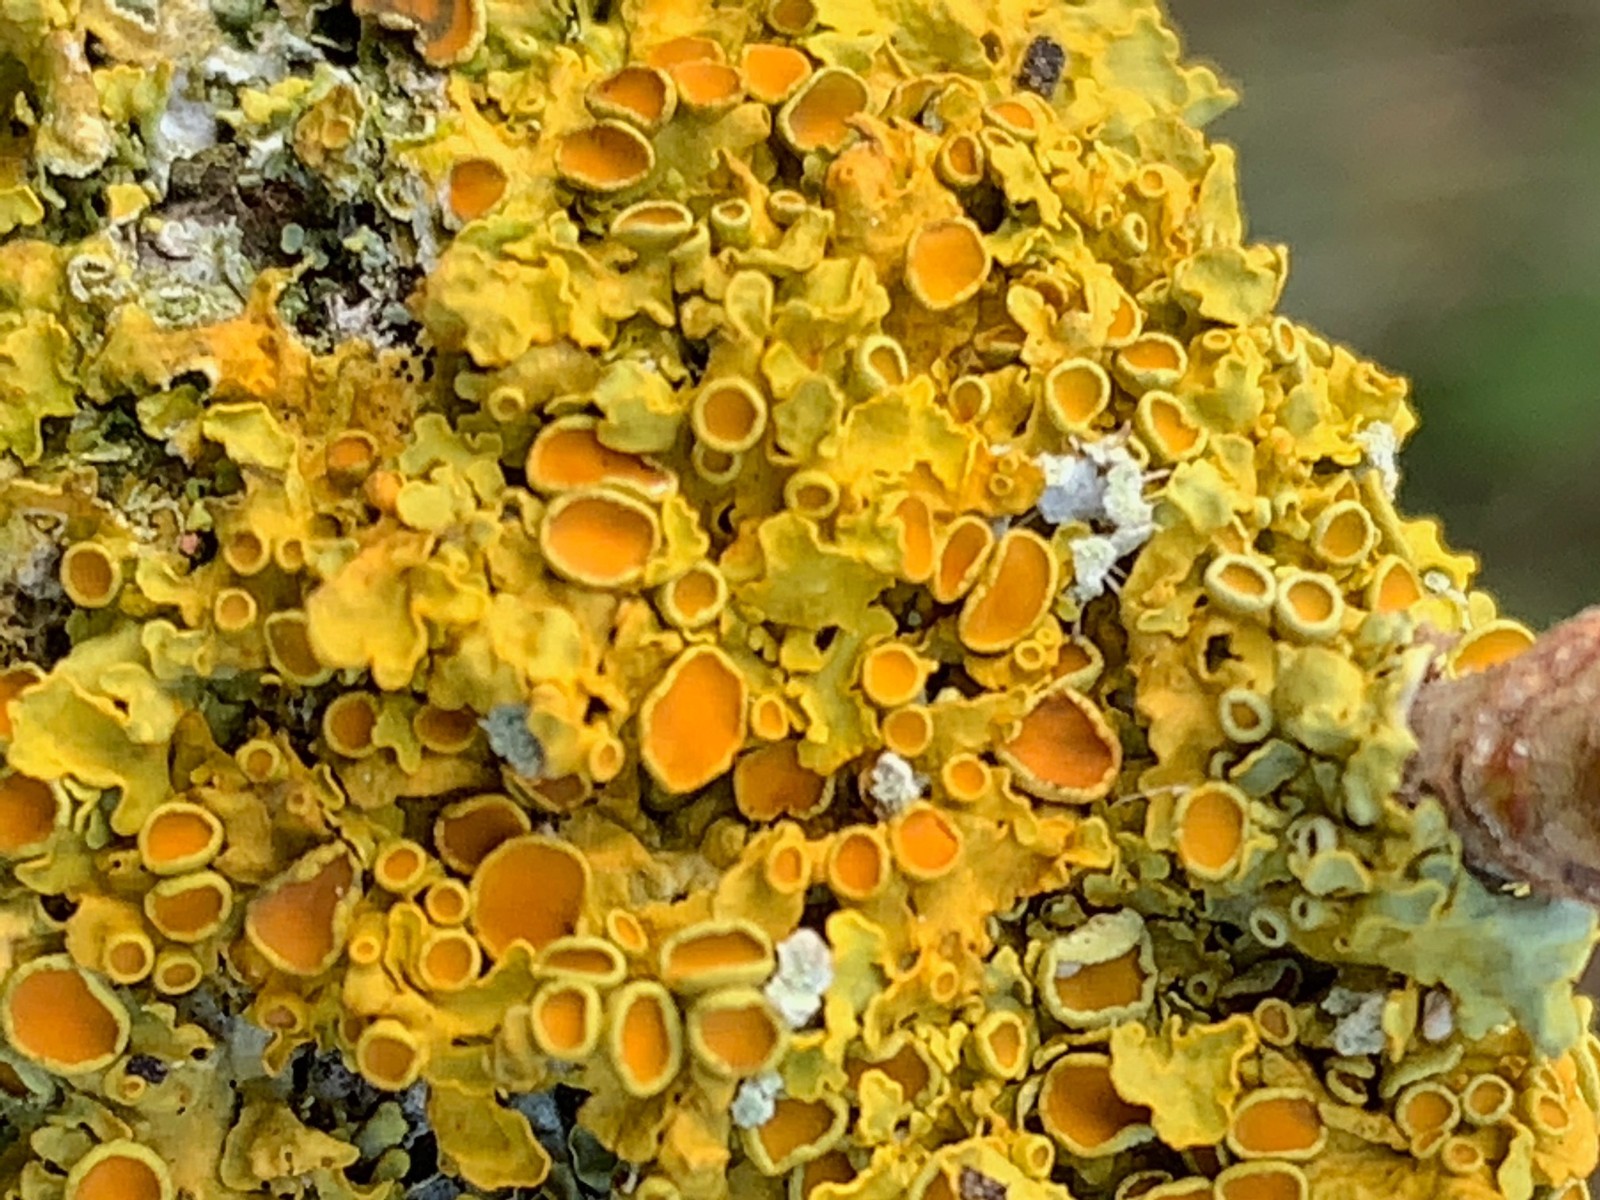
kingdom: Fungi
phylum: Ascomycota
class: Lecanoromycetes
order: Teloschistales
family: Teloschistaceae
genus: Xanthoria
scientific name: Xanthoria parietina
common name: almindelig væggelav
